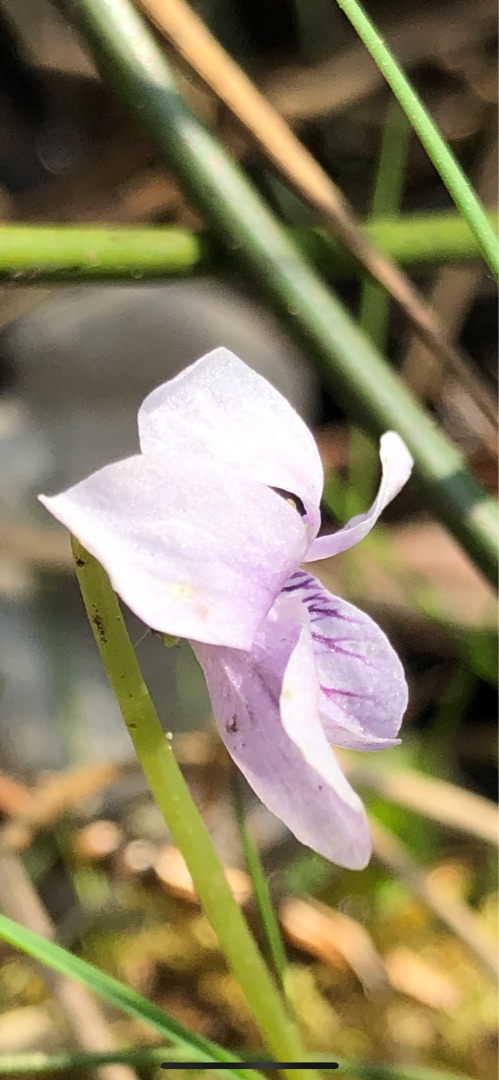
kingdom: Plantae
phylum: Tracheophyta
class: Magnoliopsida
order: Malpighiales
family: Violaceae
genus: Viola
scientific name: Viola palustris
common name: Eng-viol
